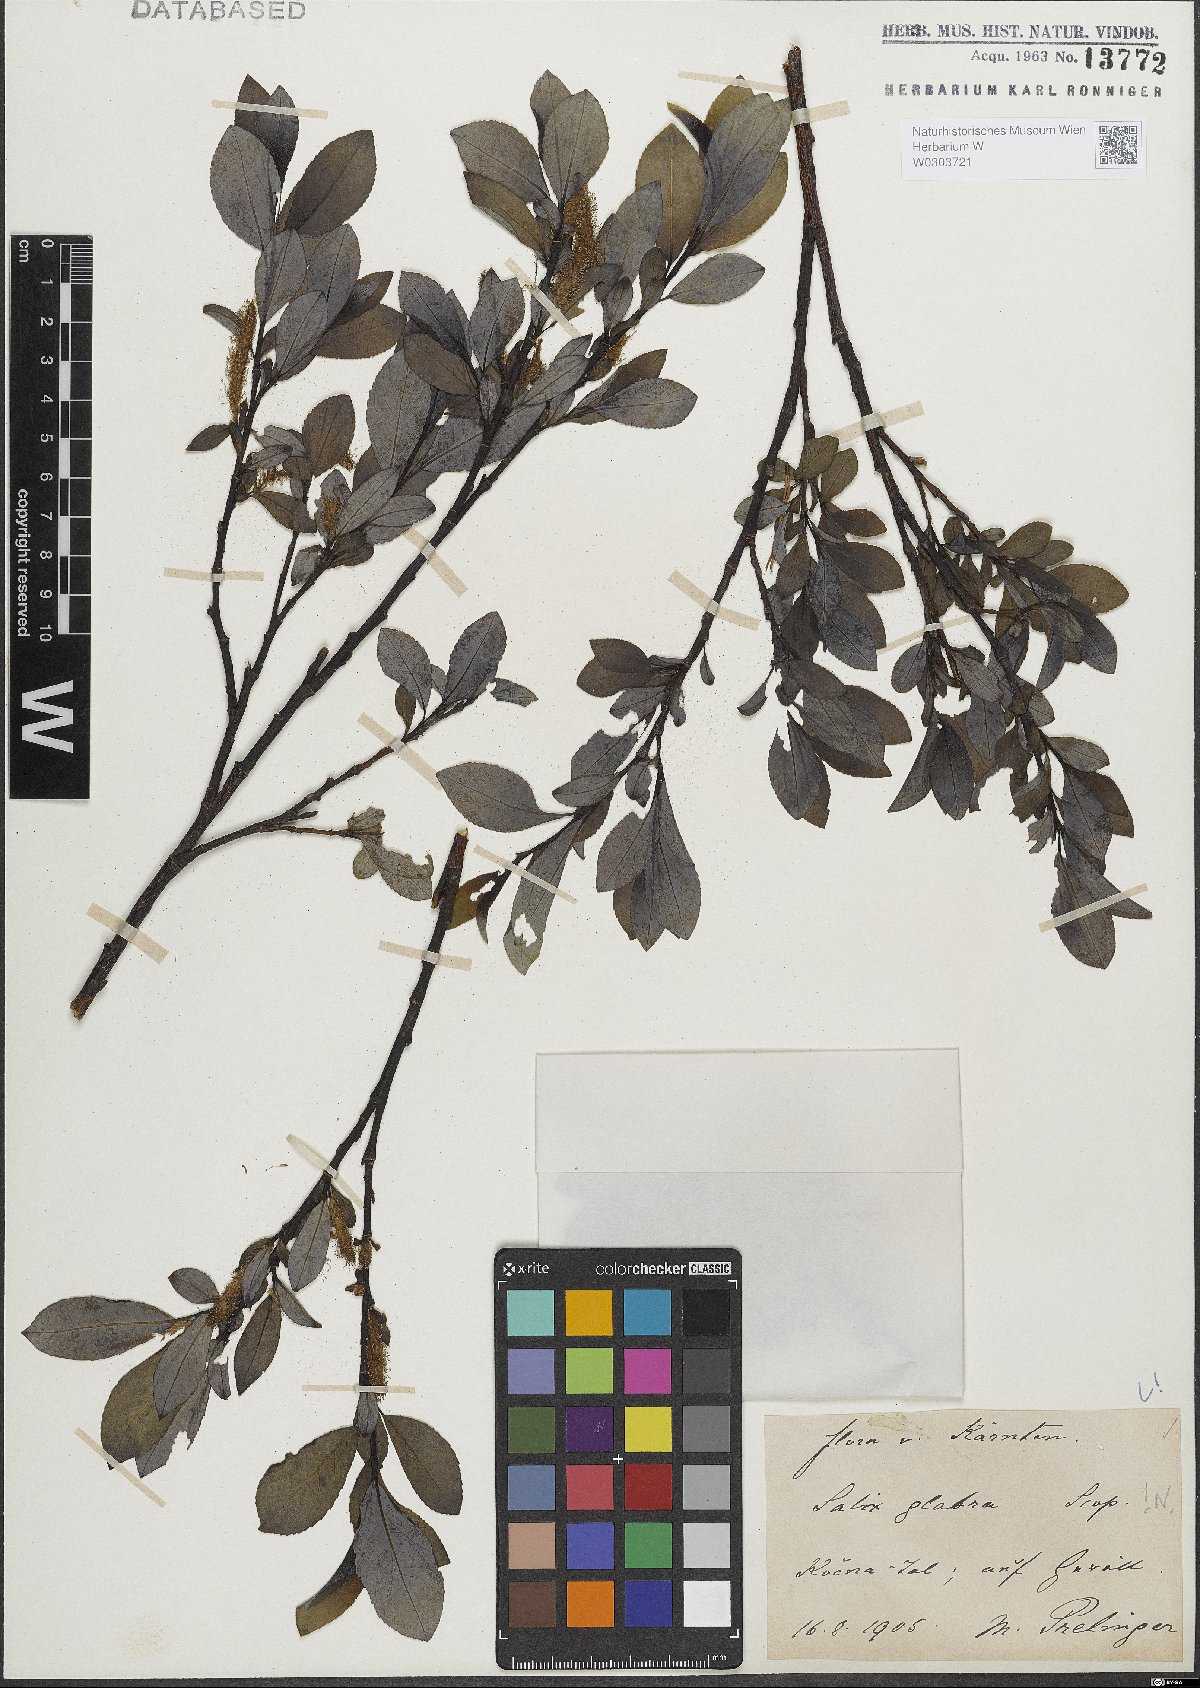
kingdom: Plantae
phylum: Tracheophyta
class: Magnoliopsida
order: Malpighiales
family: Salicaceae
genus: Salix
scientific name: Salix glabra
